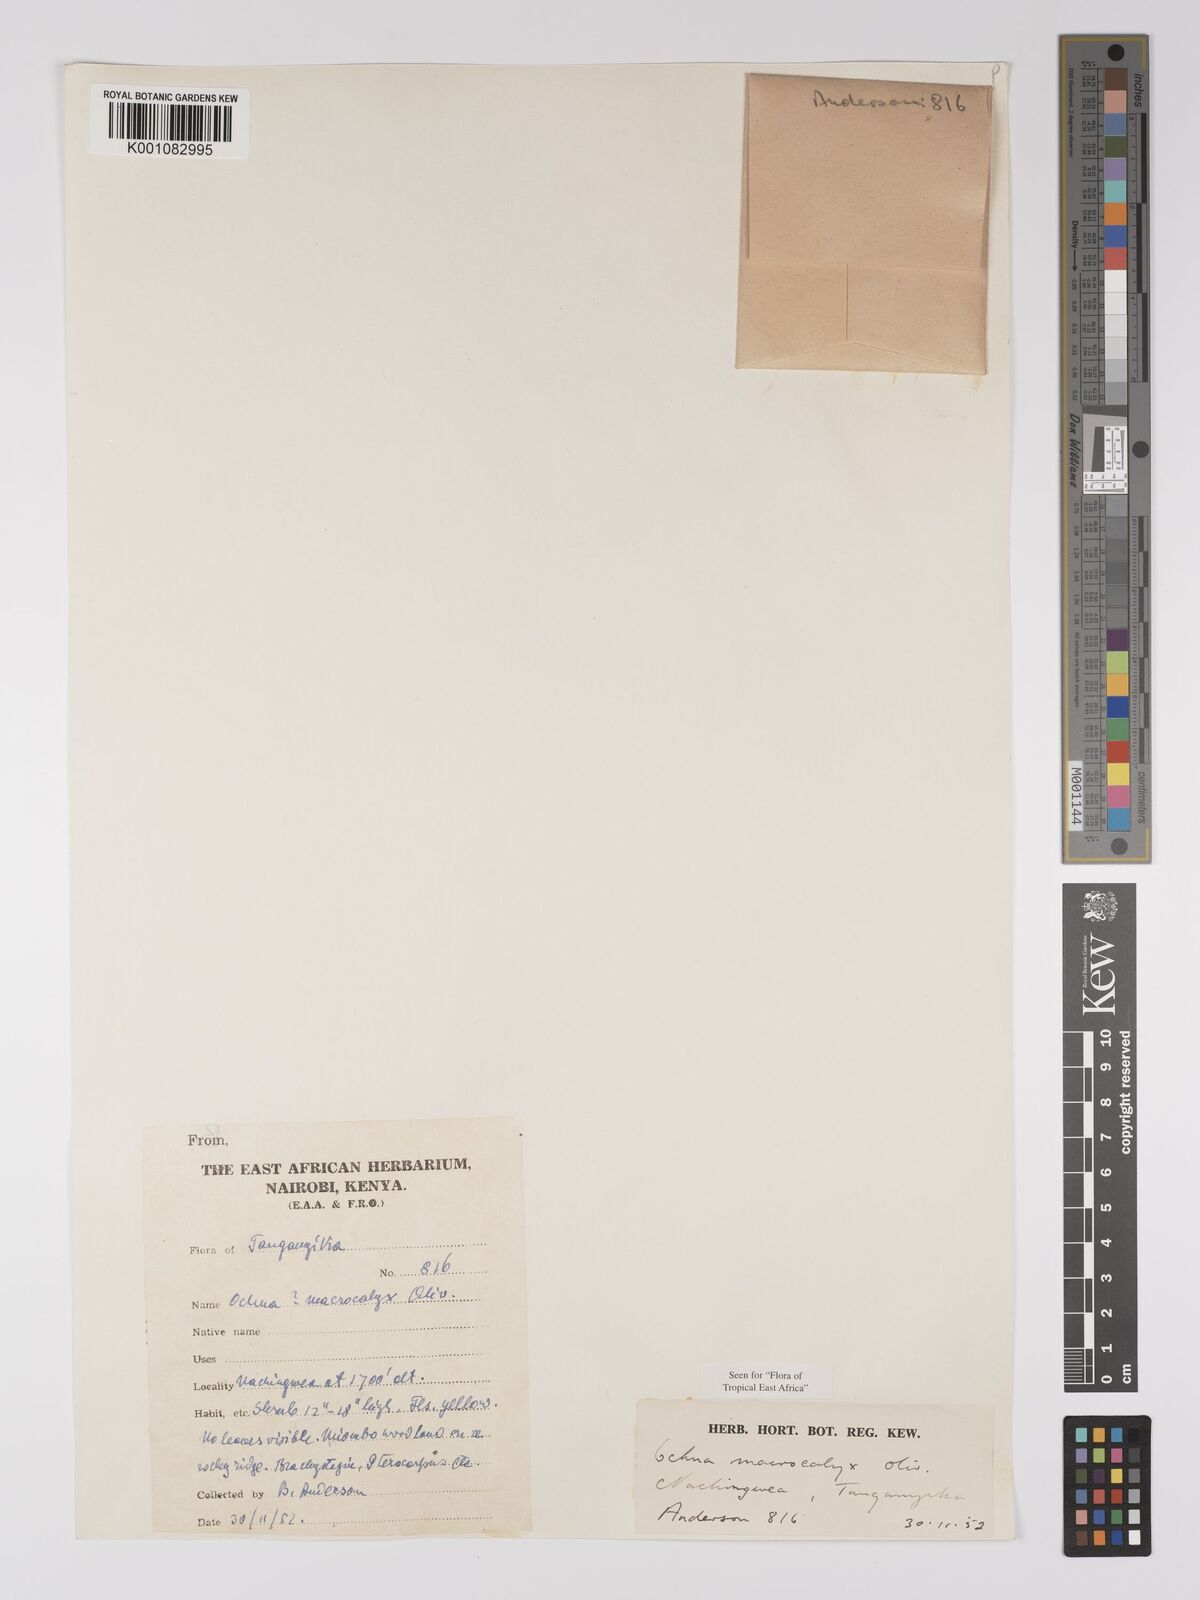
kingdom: Plantae
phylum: Tracheophyta
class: Magnoliopsida
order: Malpighiales
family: Ochnaceae
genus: Ochna
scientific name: Ochna macrocalyx
